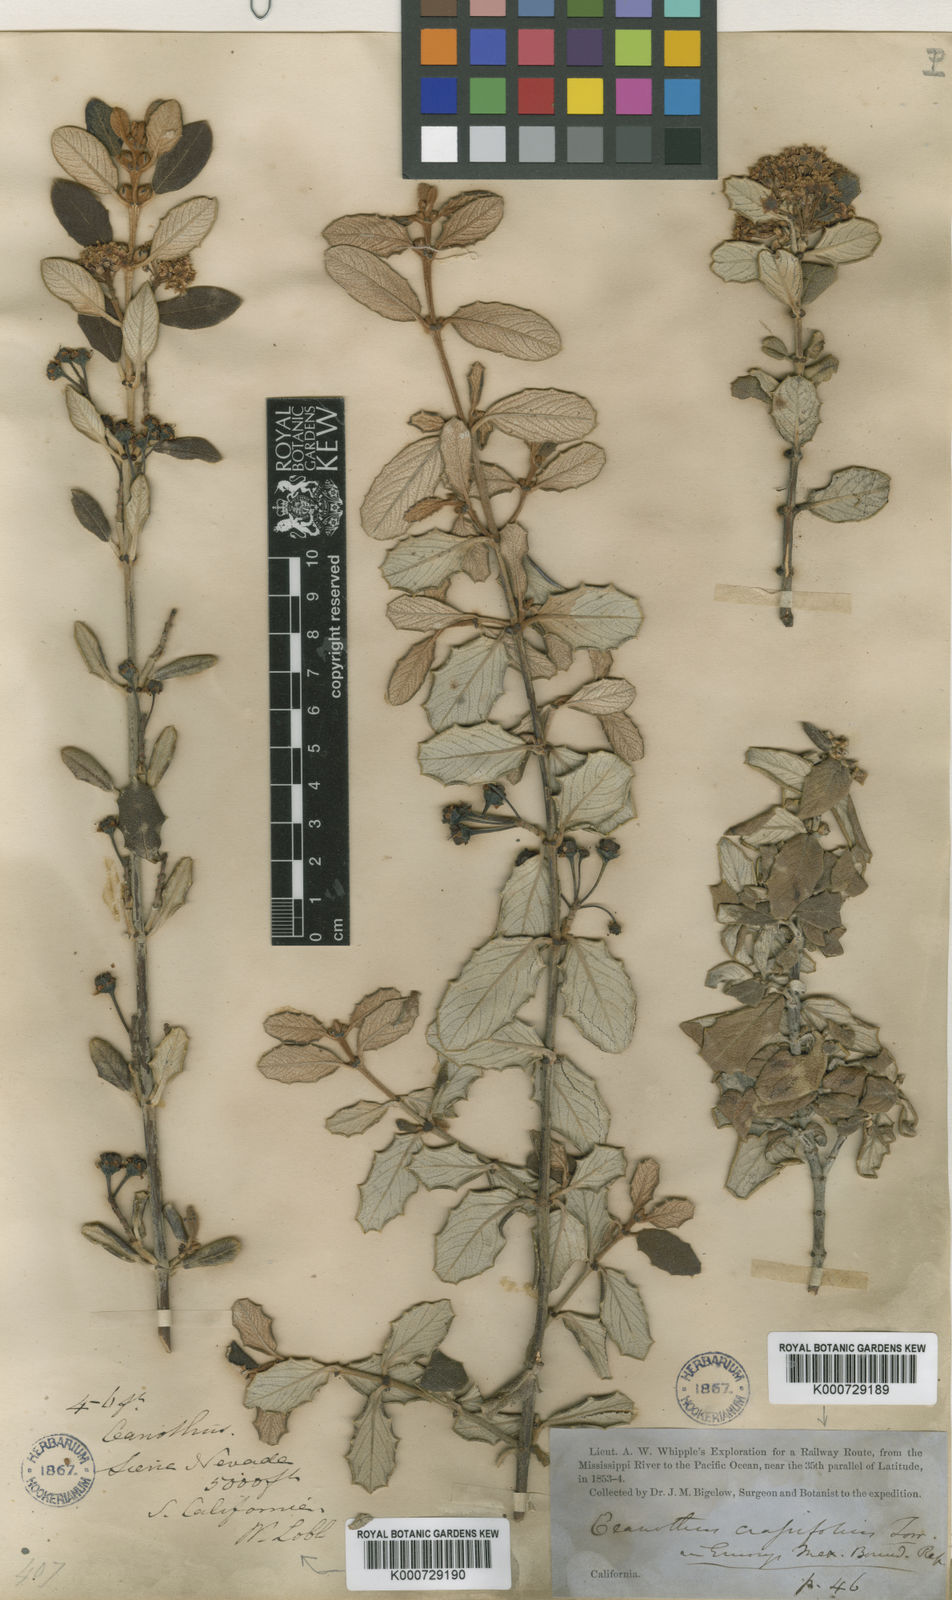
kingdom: Plantae
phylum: Tracheophyta
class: Magnoliopsida
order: Rosales
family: Rhamnaceae
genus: Ceanothus
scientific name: Ceanothus crassifolius
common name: Hoaryleaf ceanothus
